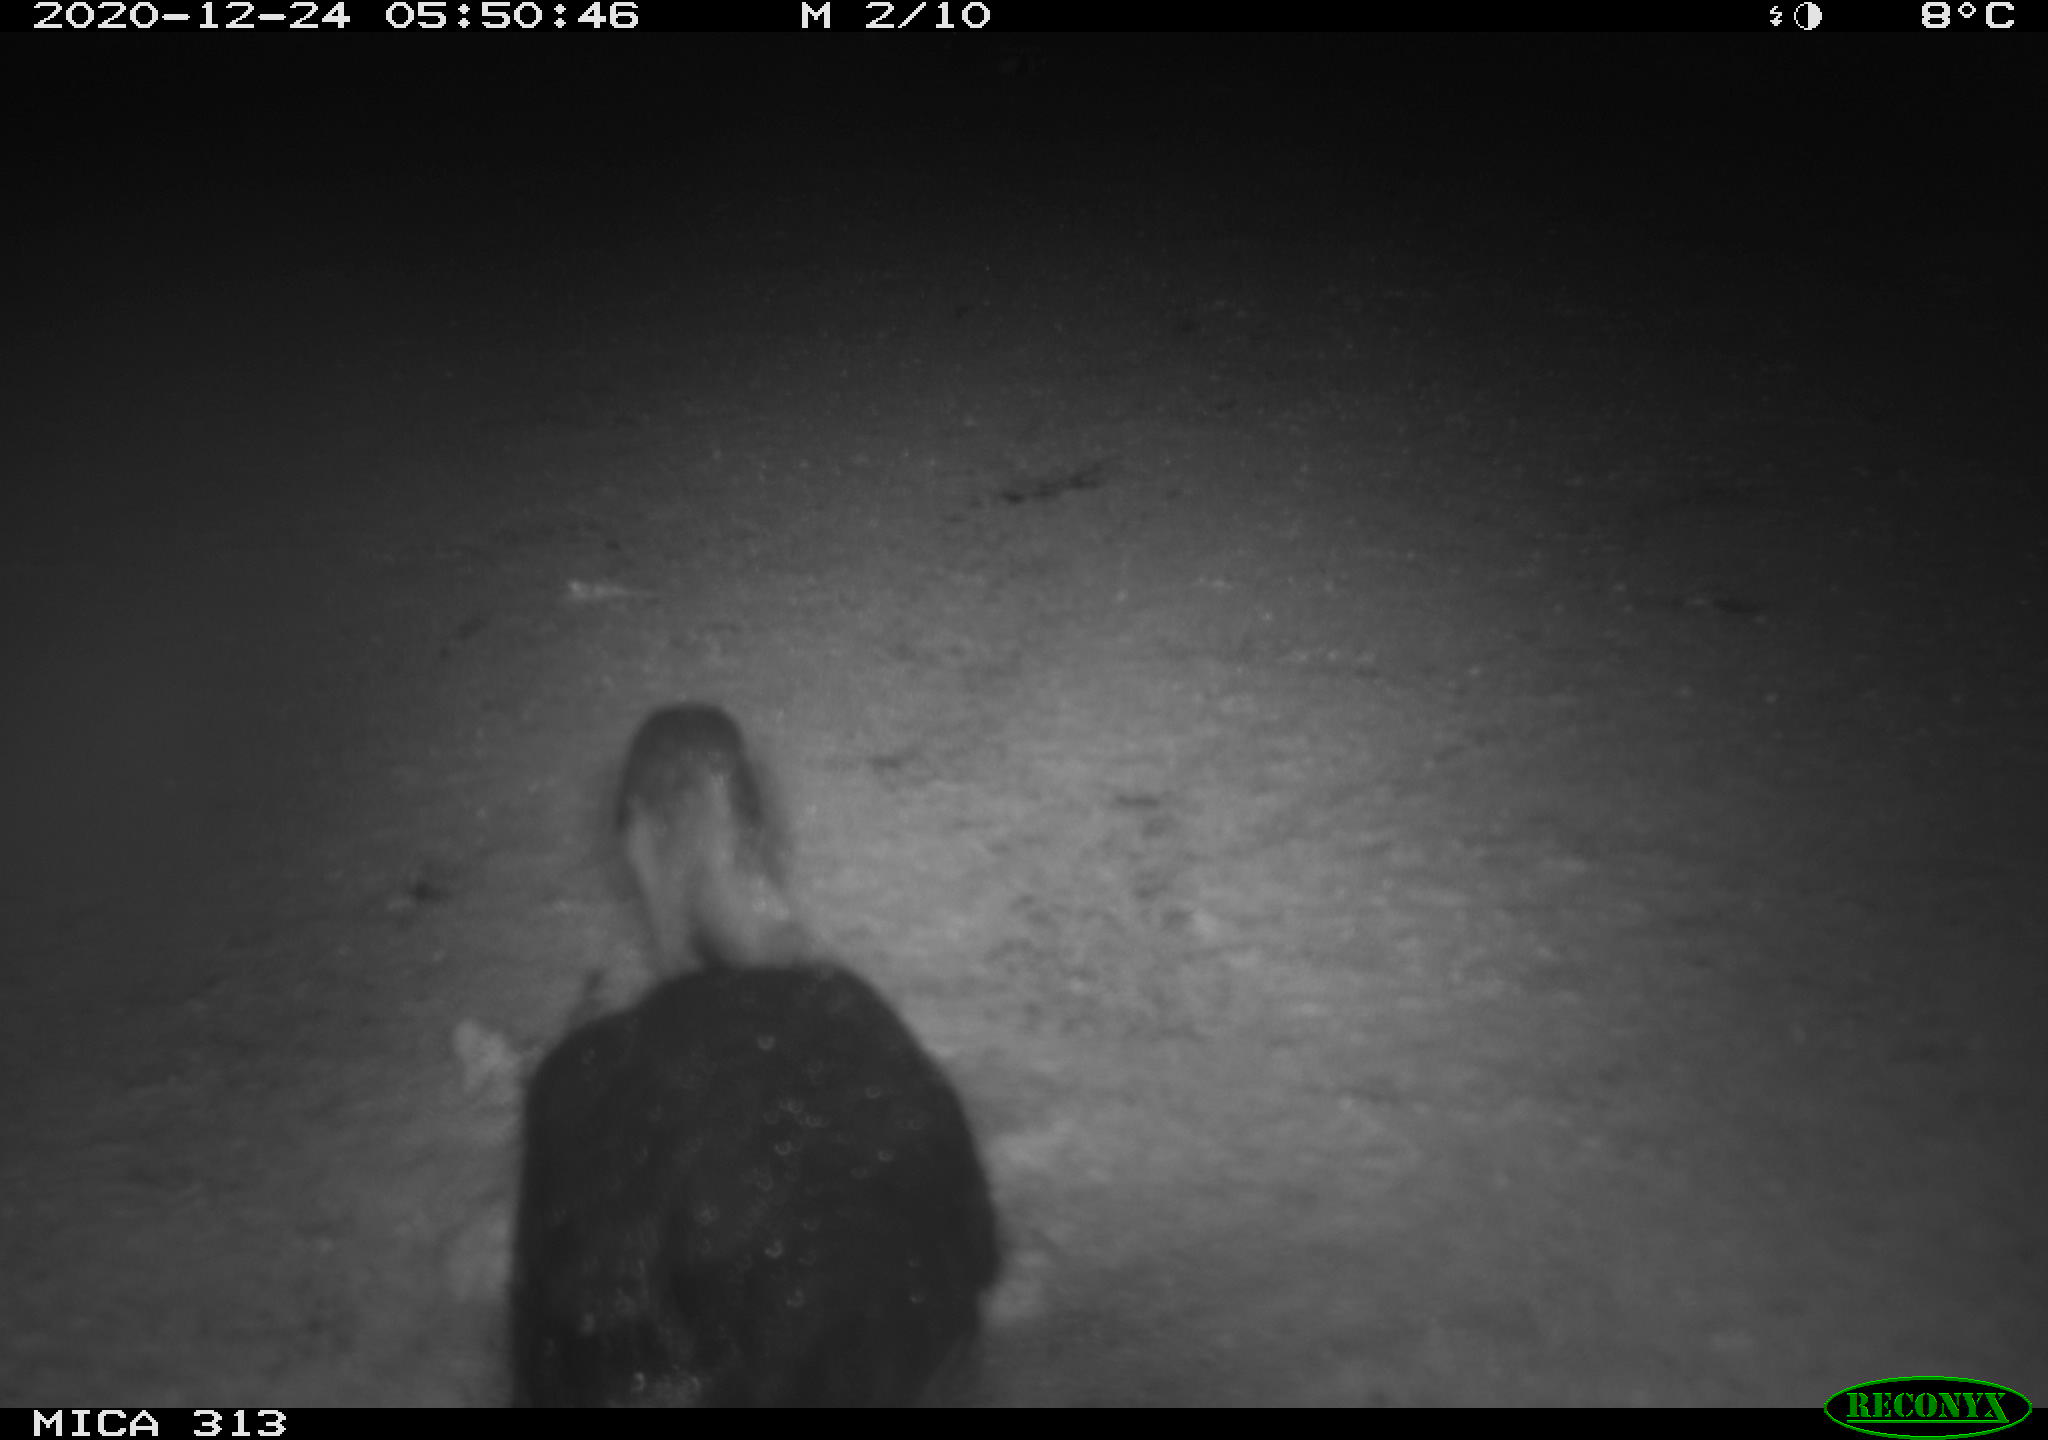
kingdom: Animalia
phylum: Chordata
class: Aves
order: Gruiformes
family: Rallidae
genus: Fulica
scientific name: Fulica atra
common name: Eurasian coot
